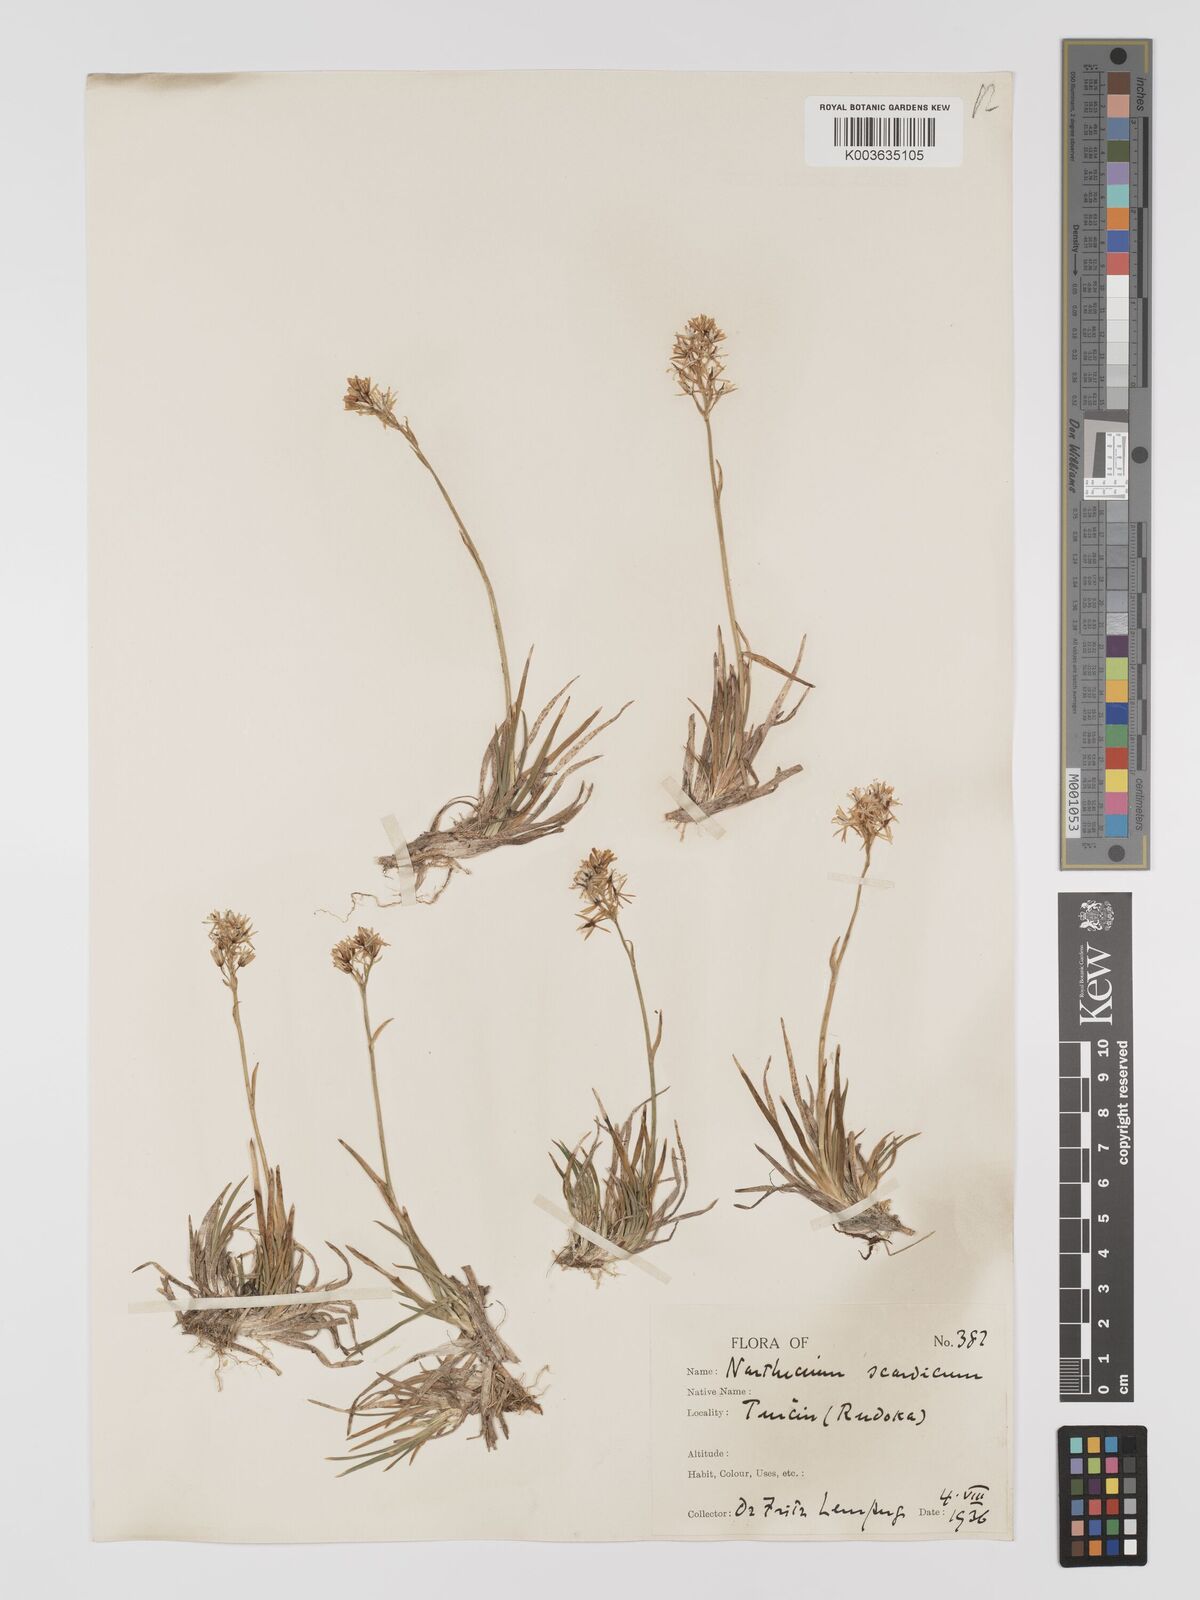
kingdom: Plantae
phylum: Tracheophyta
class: Liliopsida
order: Dioscoreales
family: Nartheciaceae
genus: Narthecium
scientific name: Narthecium scardicum
